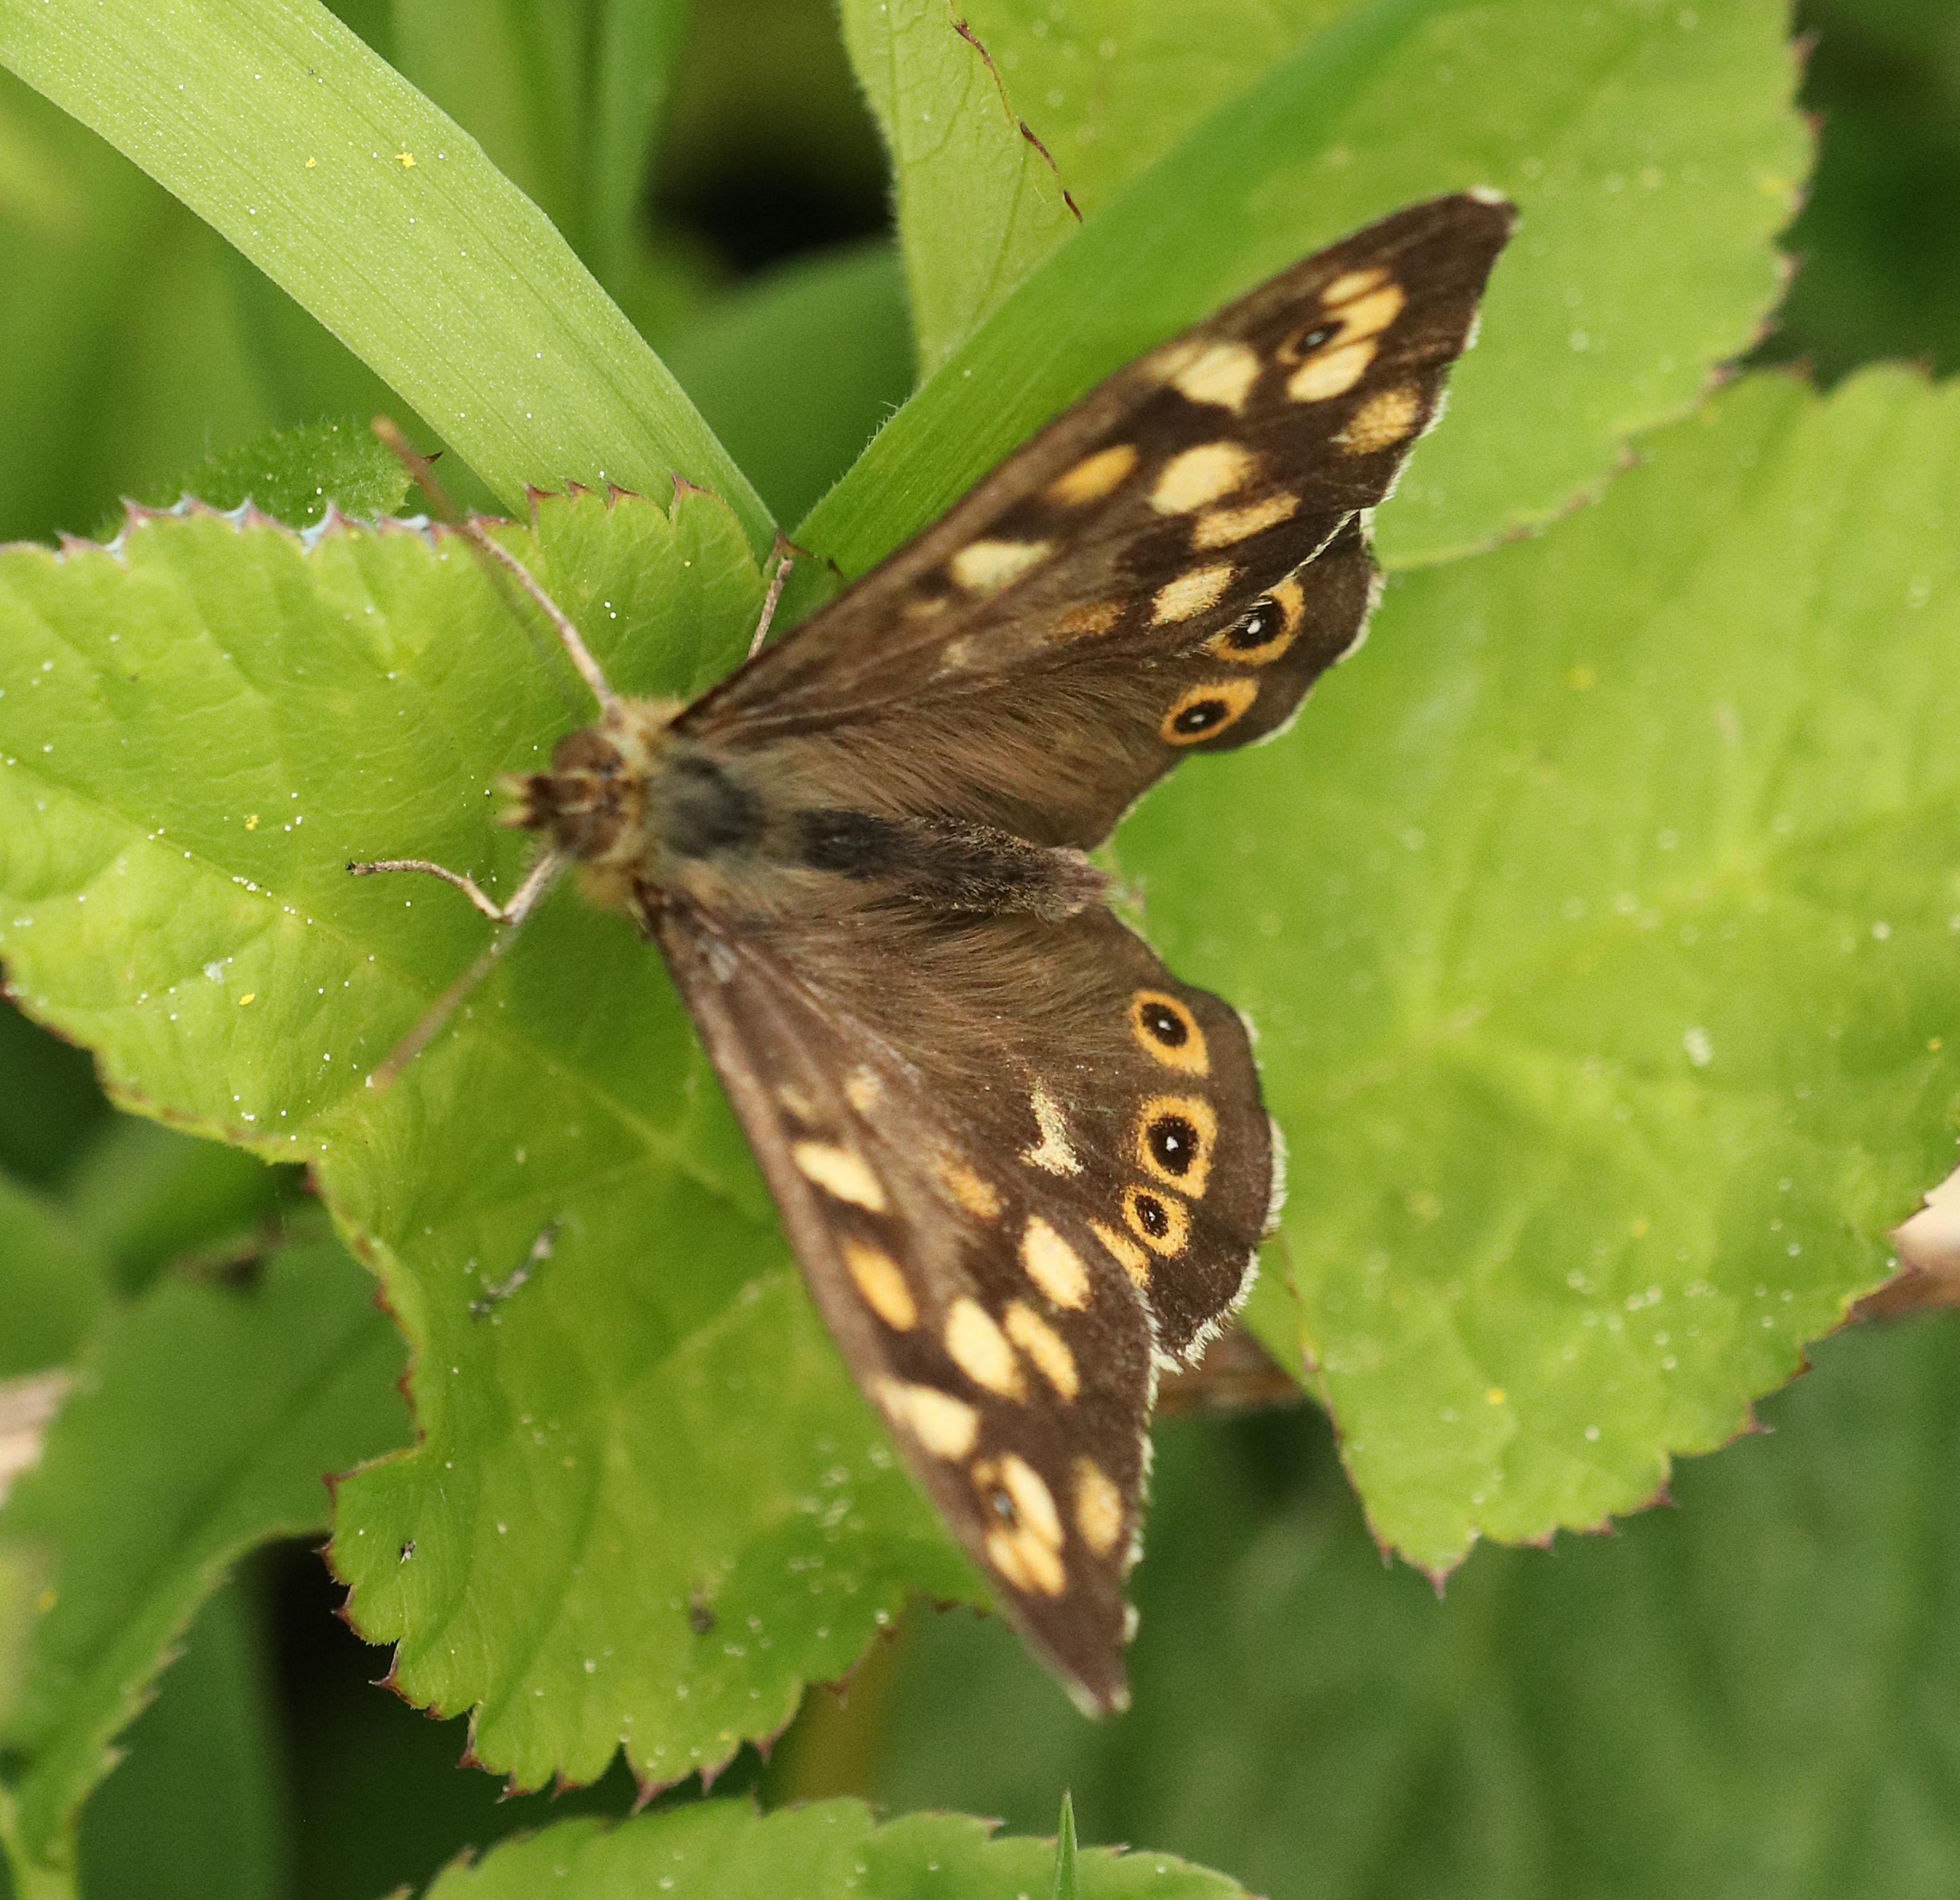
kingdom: Animalia
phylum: Arthropoda
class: Insecta
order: Lepidoptera
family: Nymphalidae
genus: Pararge
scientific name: Pararge aegeria
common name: Skovrandøje
